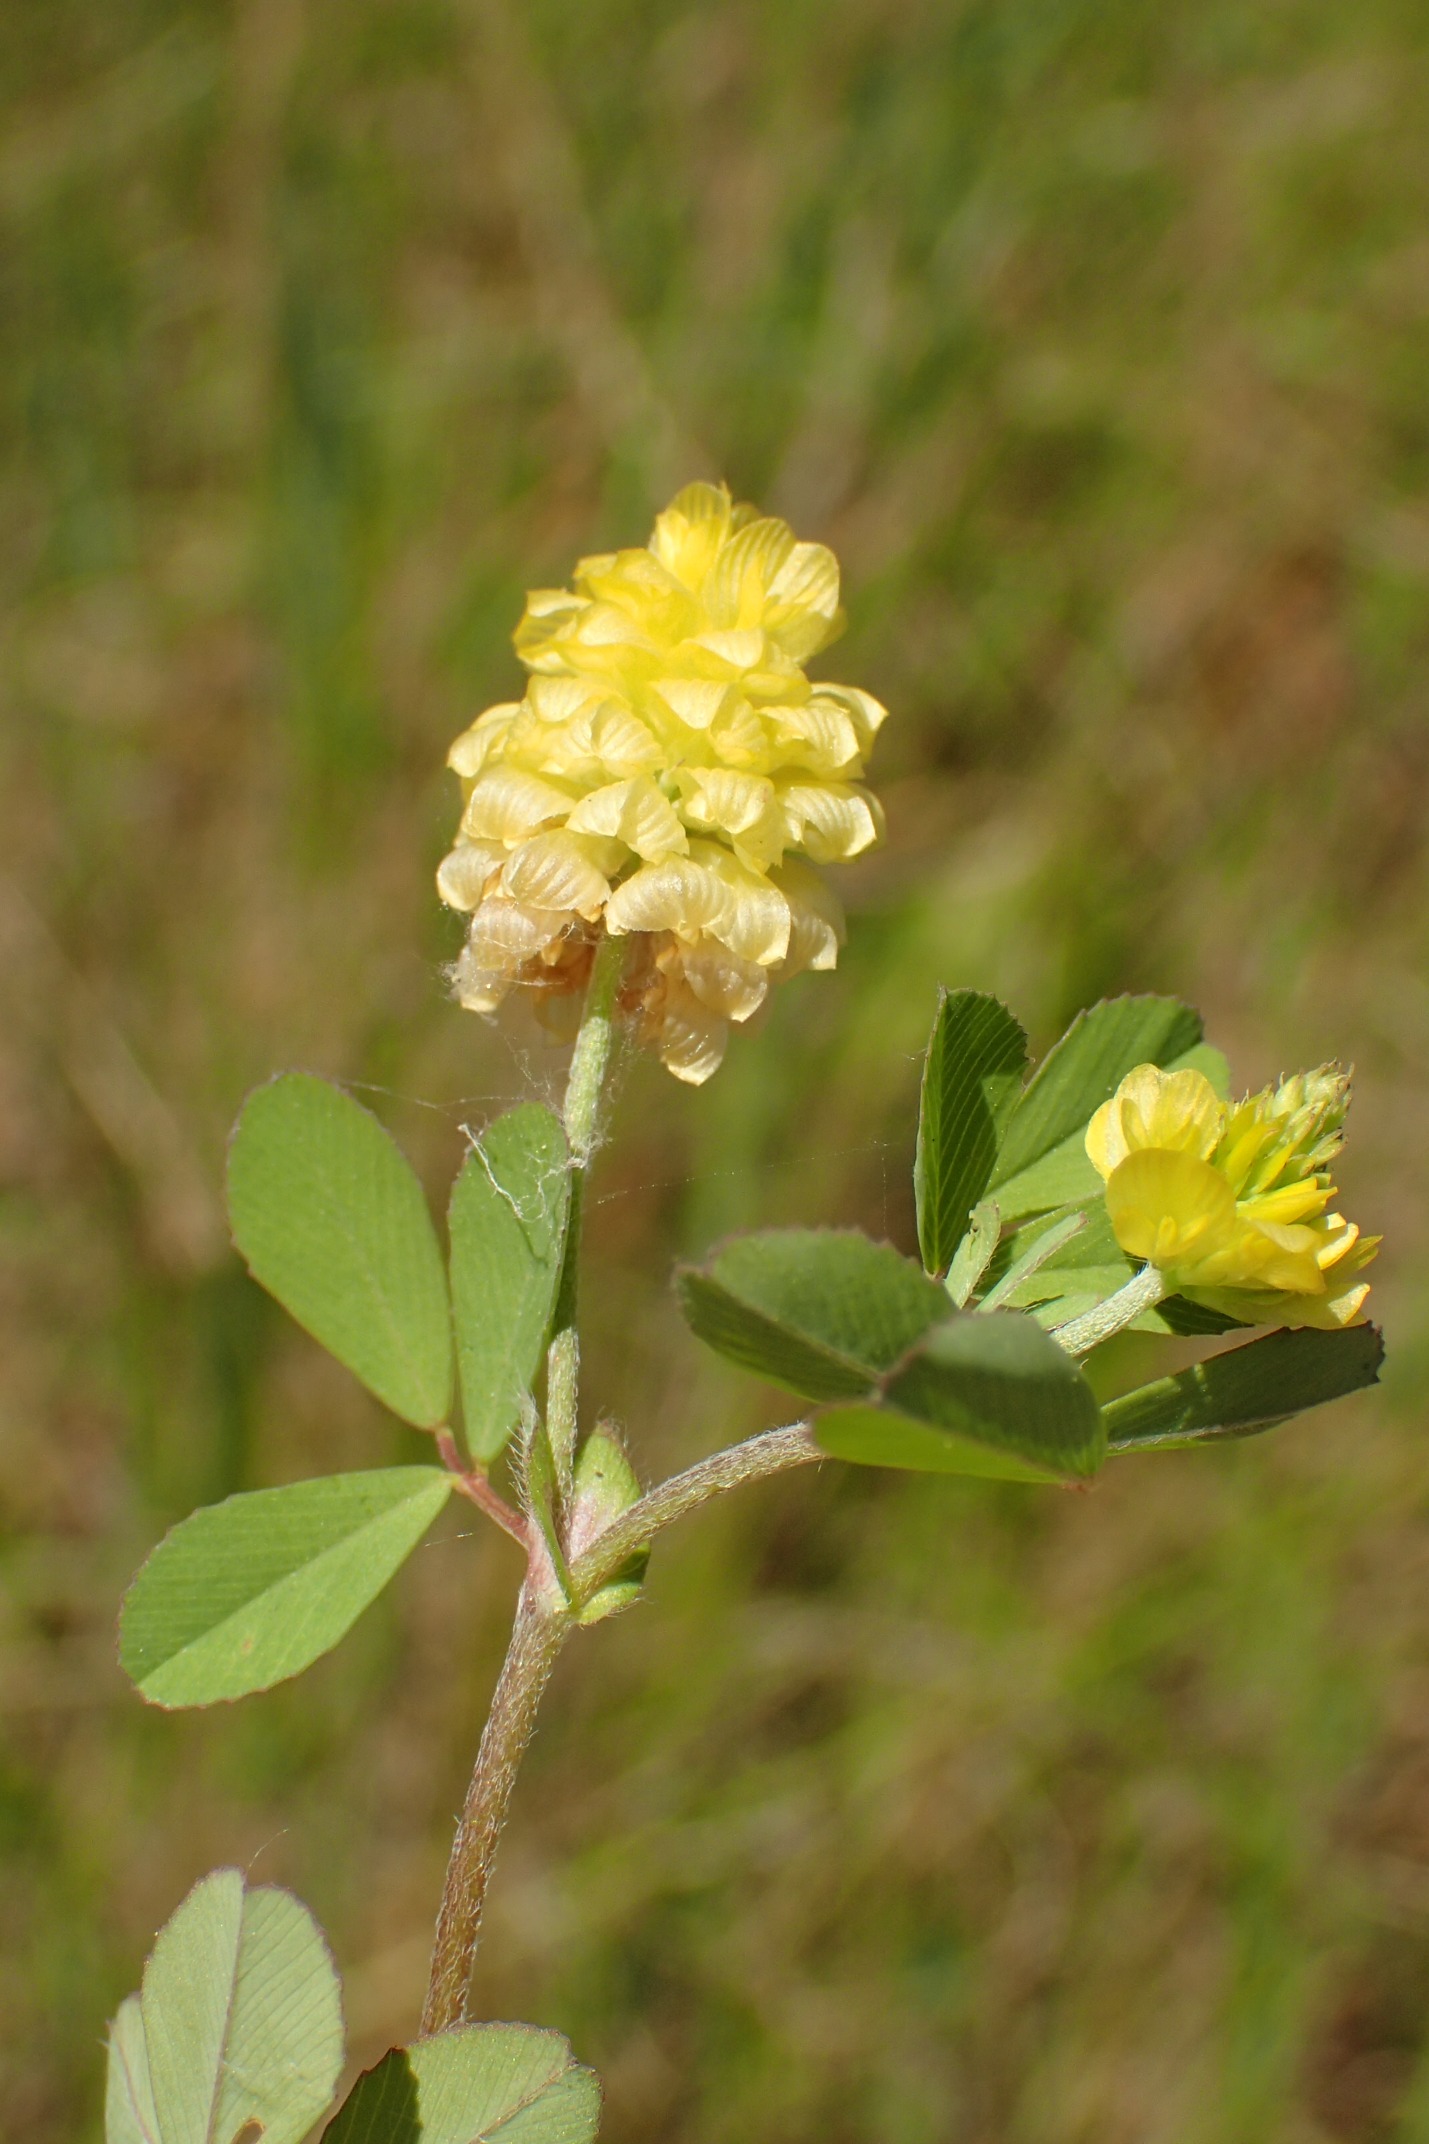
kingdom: Plantae
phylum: Tracheophyta
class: Magnoliopsida
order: Fabales
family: Fabaceae
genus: Trifolium
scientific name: Trifolium campestre
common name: Gul kløver
